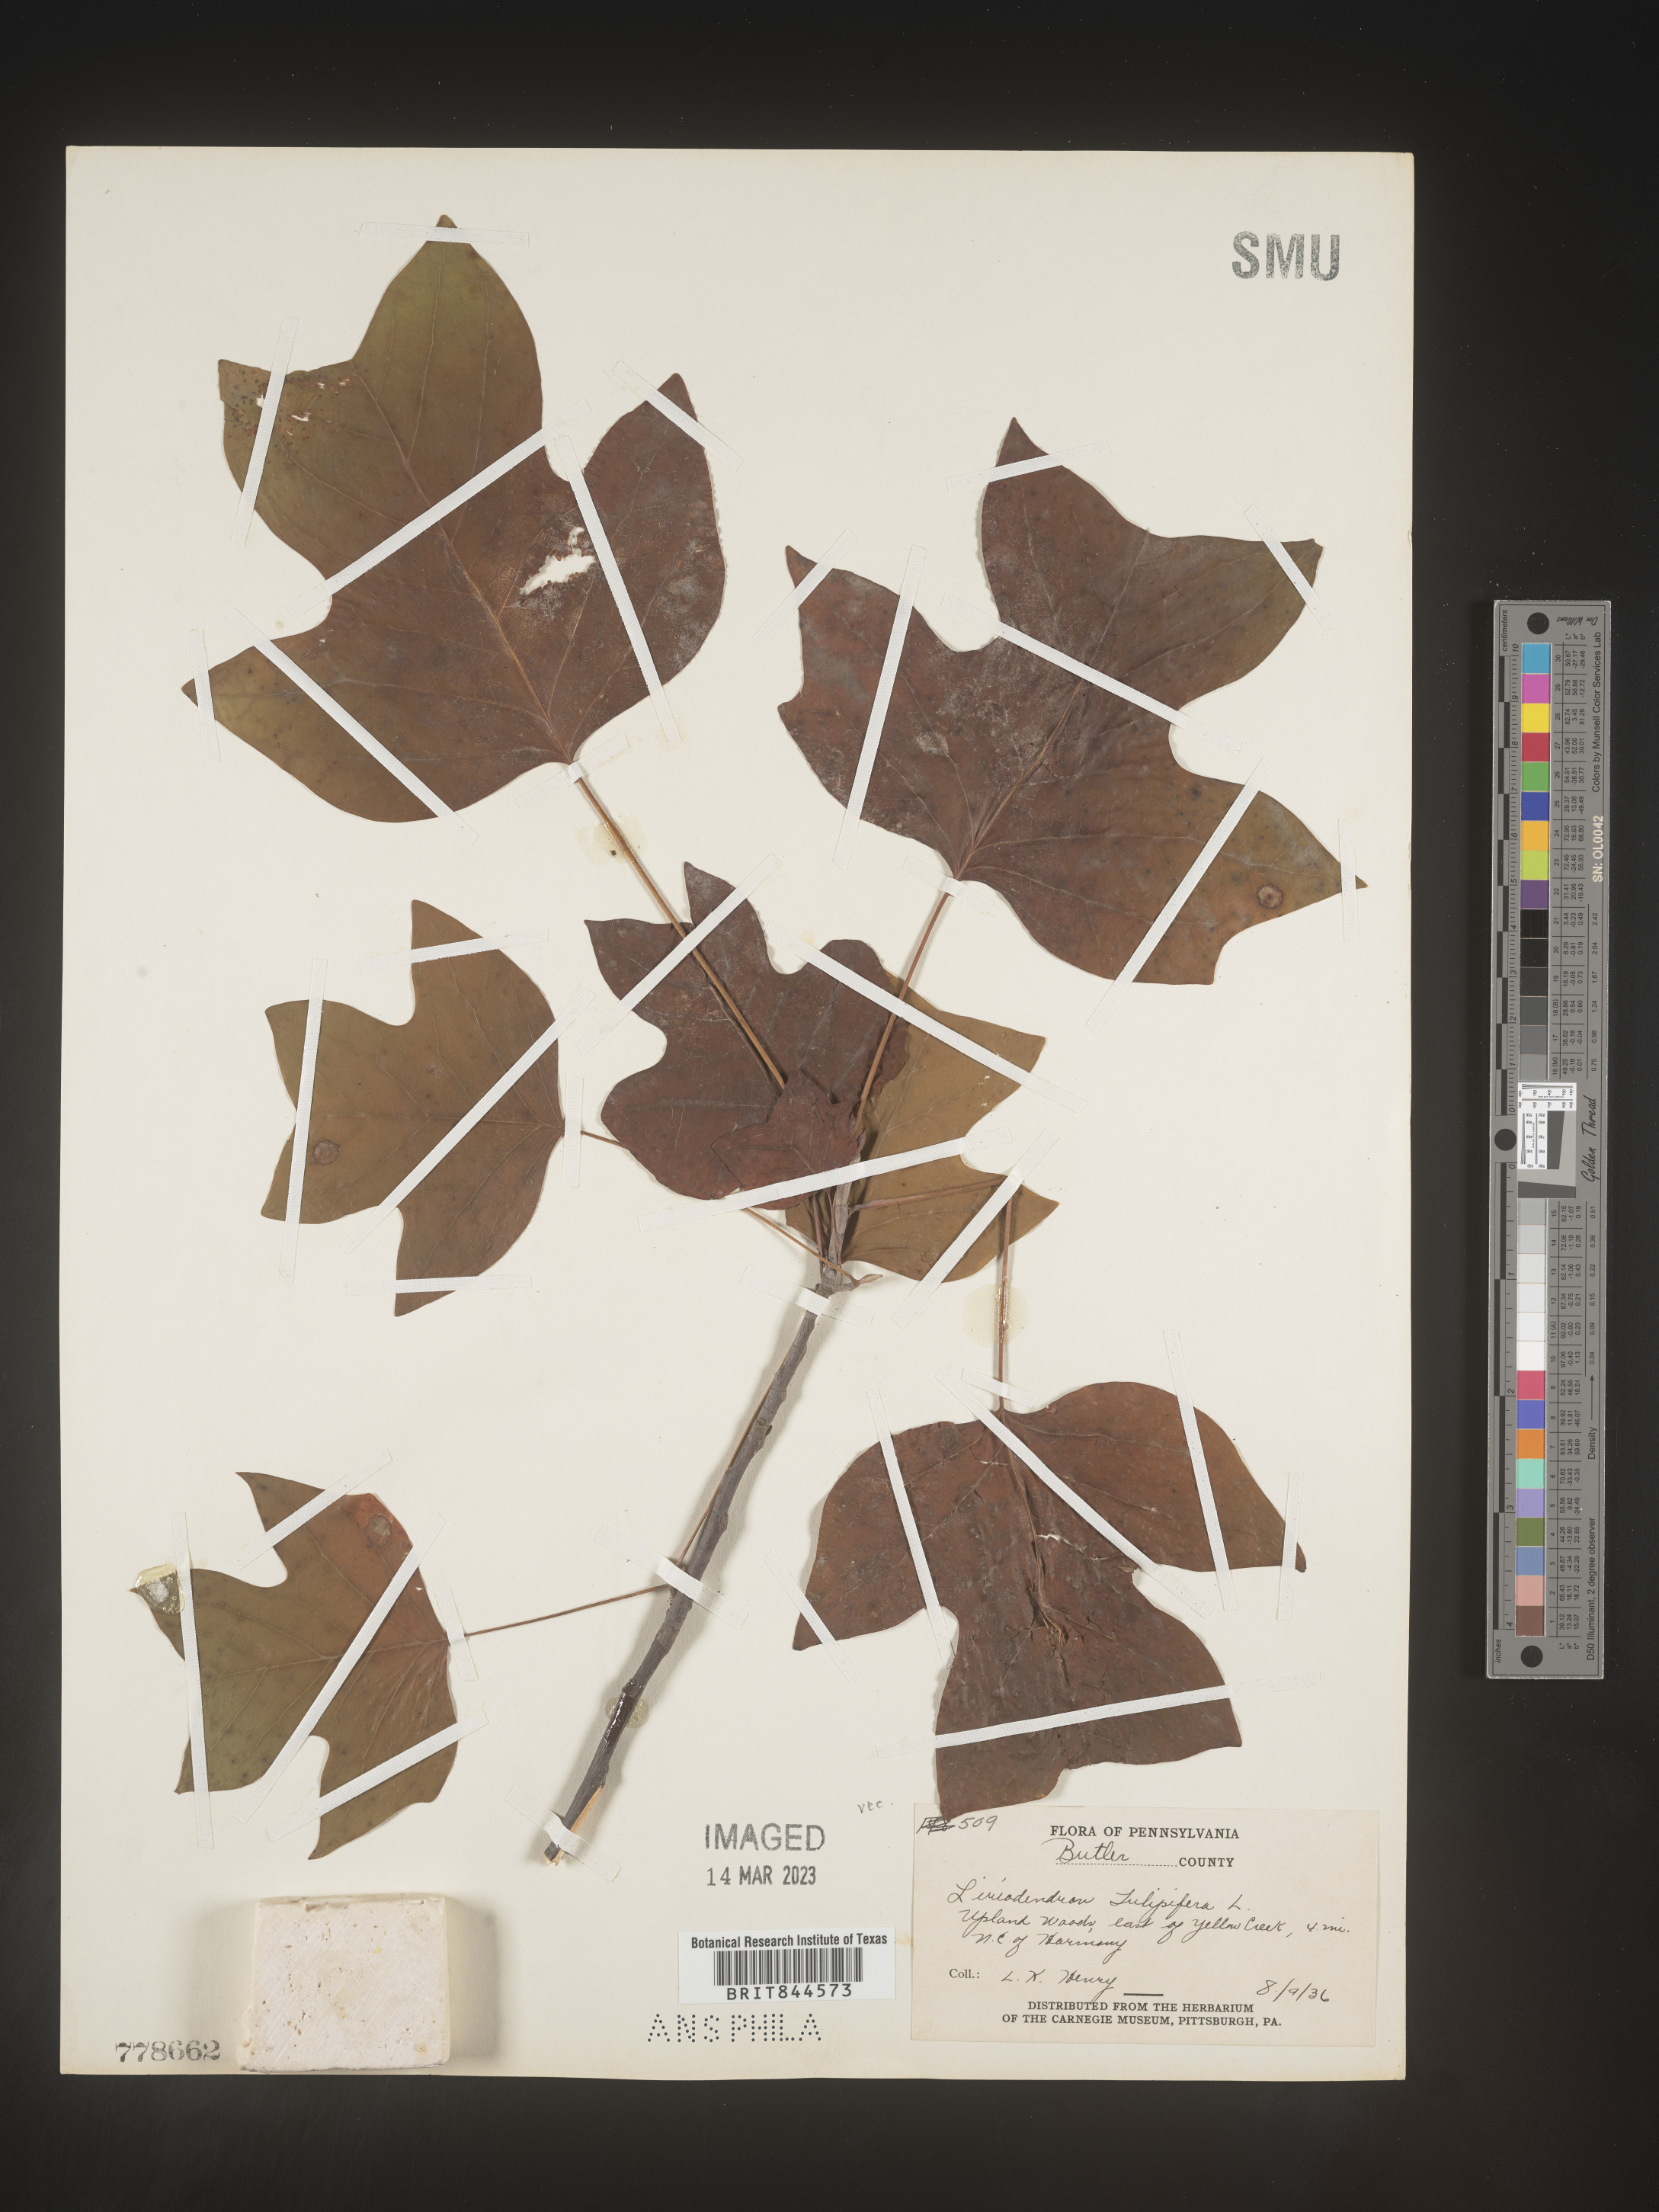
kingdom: Plantae
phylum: Tracheophyta
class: Magnoliopsida
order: Magnoliales
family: Magnoliaceae
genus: Liriodendron
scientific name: Liriodendron tulipifera
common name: Tulip tree
